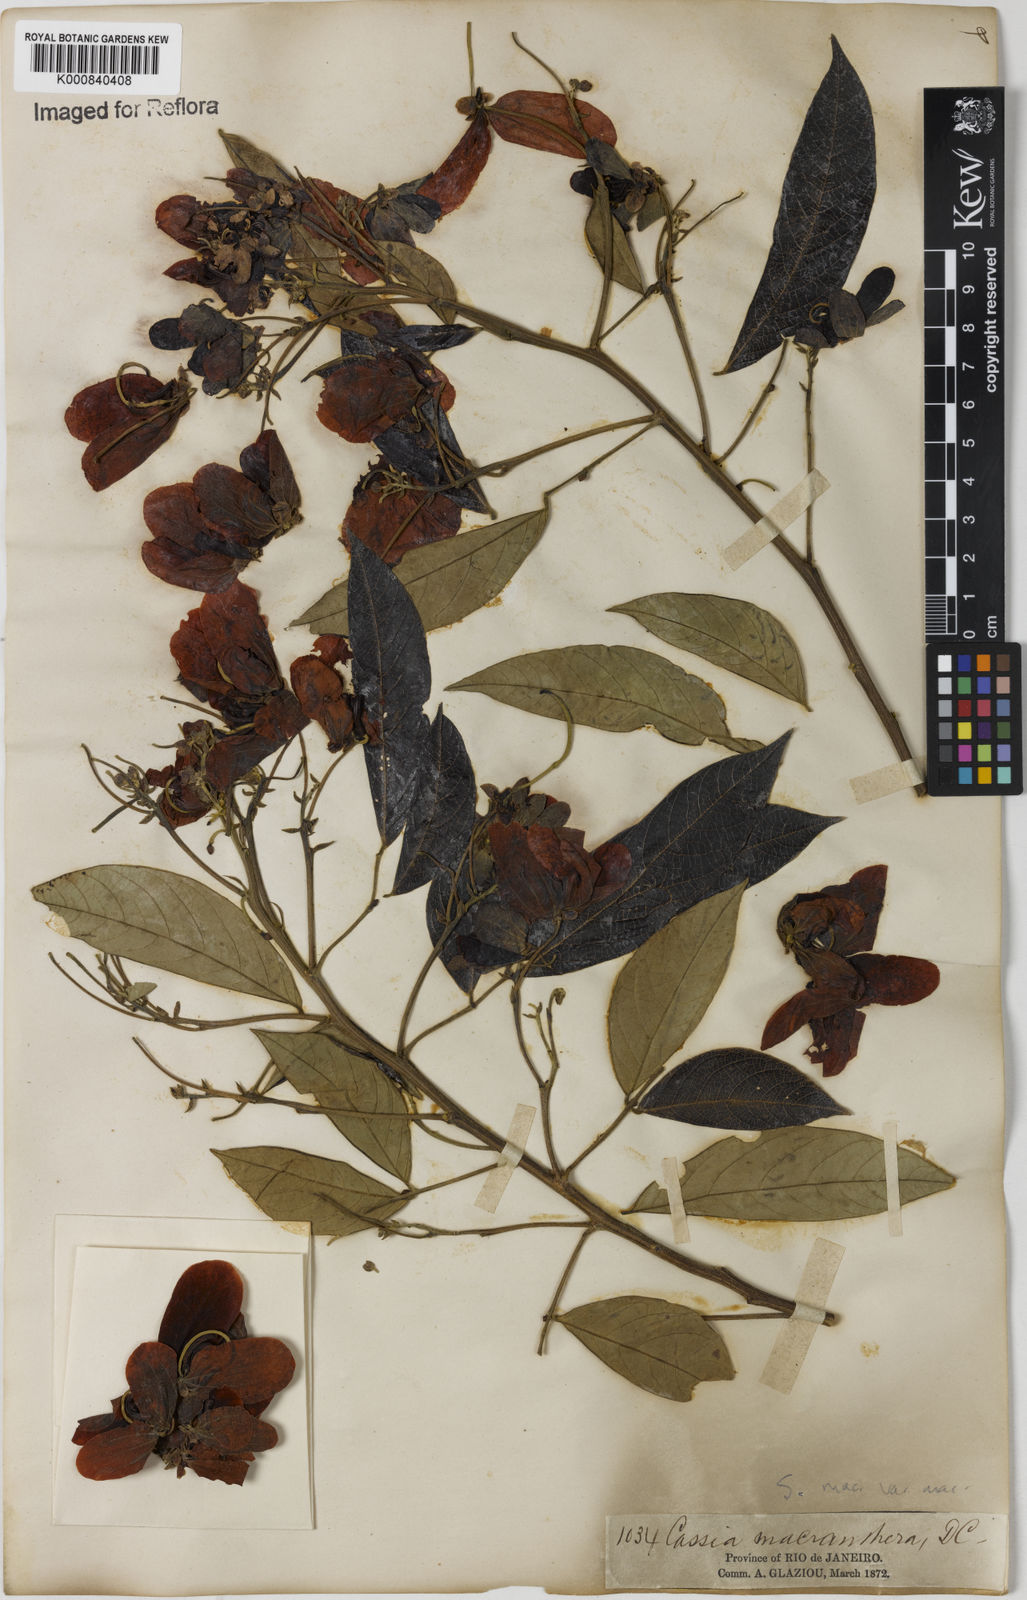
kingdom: Plantae
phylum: Tracheophyta
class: Magnoliopsida
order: Fabales
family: Fabaceae
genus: Senna
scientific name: Senna macranthera
